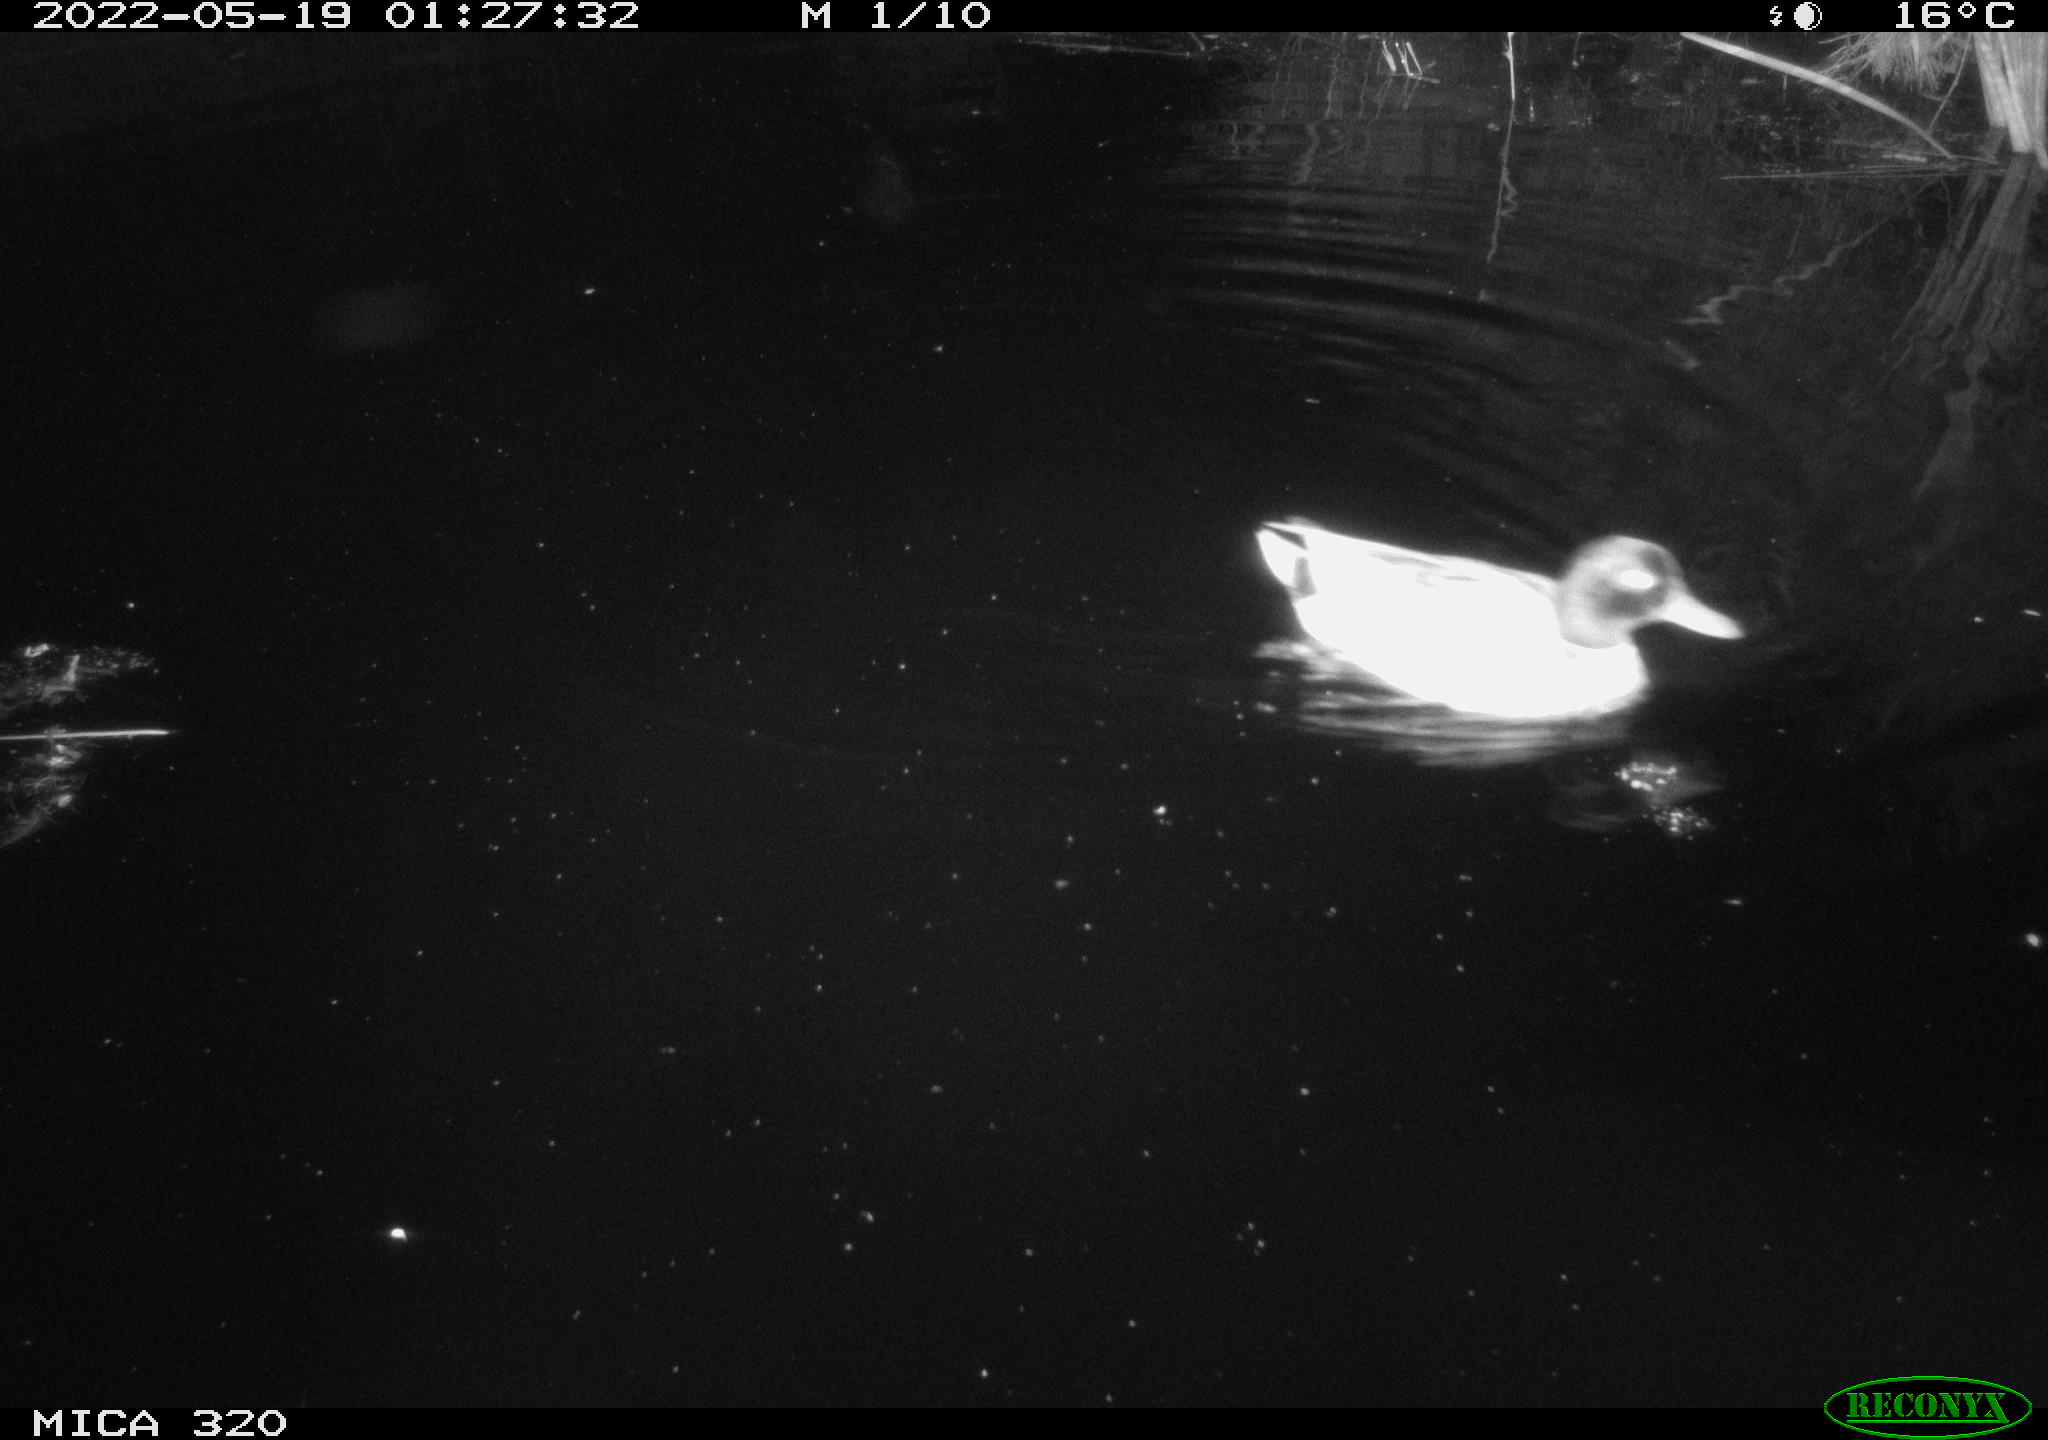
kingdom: Animalia
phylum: Chordata
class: Aves
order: Anseriformes
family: Anatidae
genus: Anas
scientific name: Anas platyrhynchos
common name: Mallard
